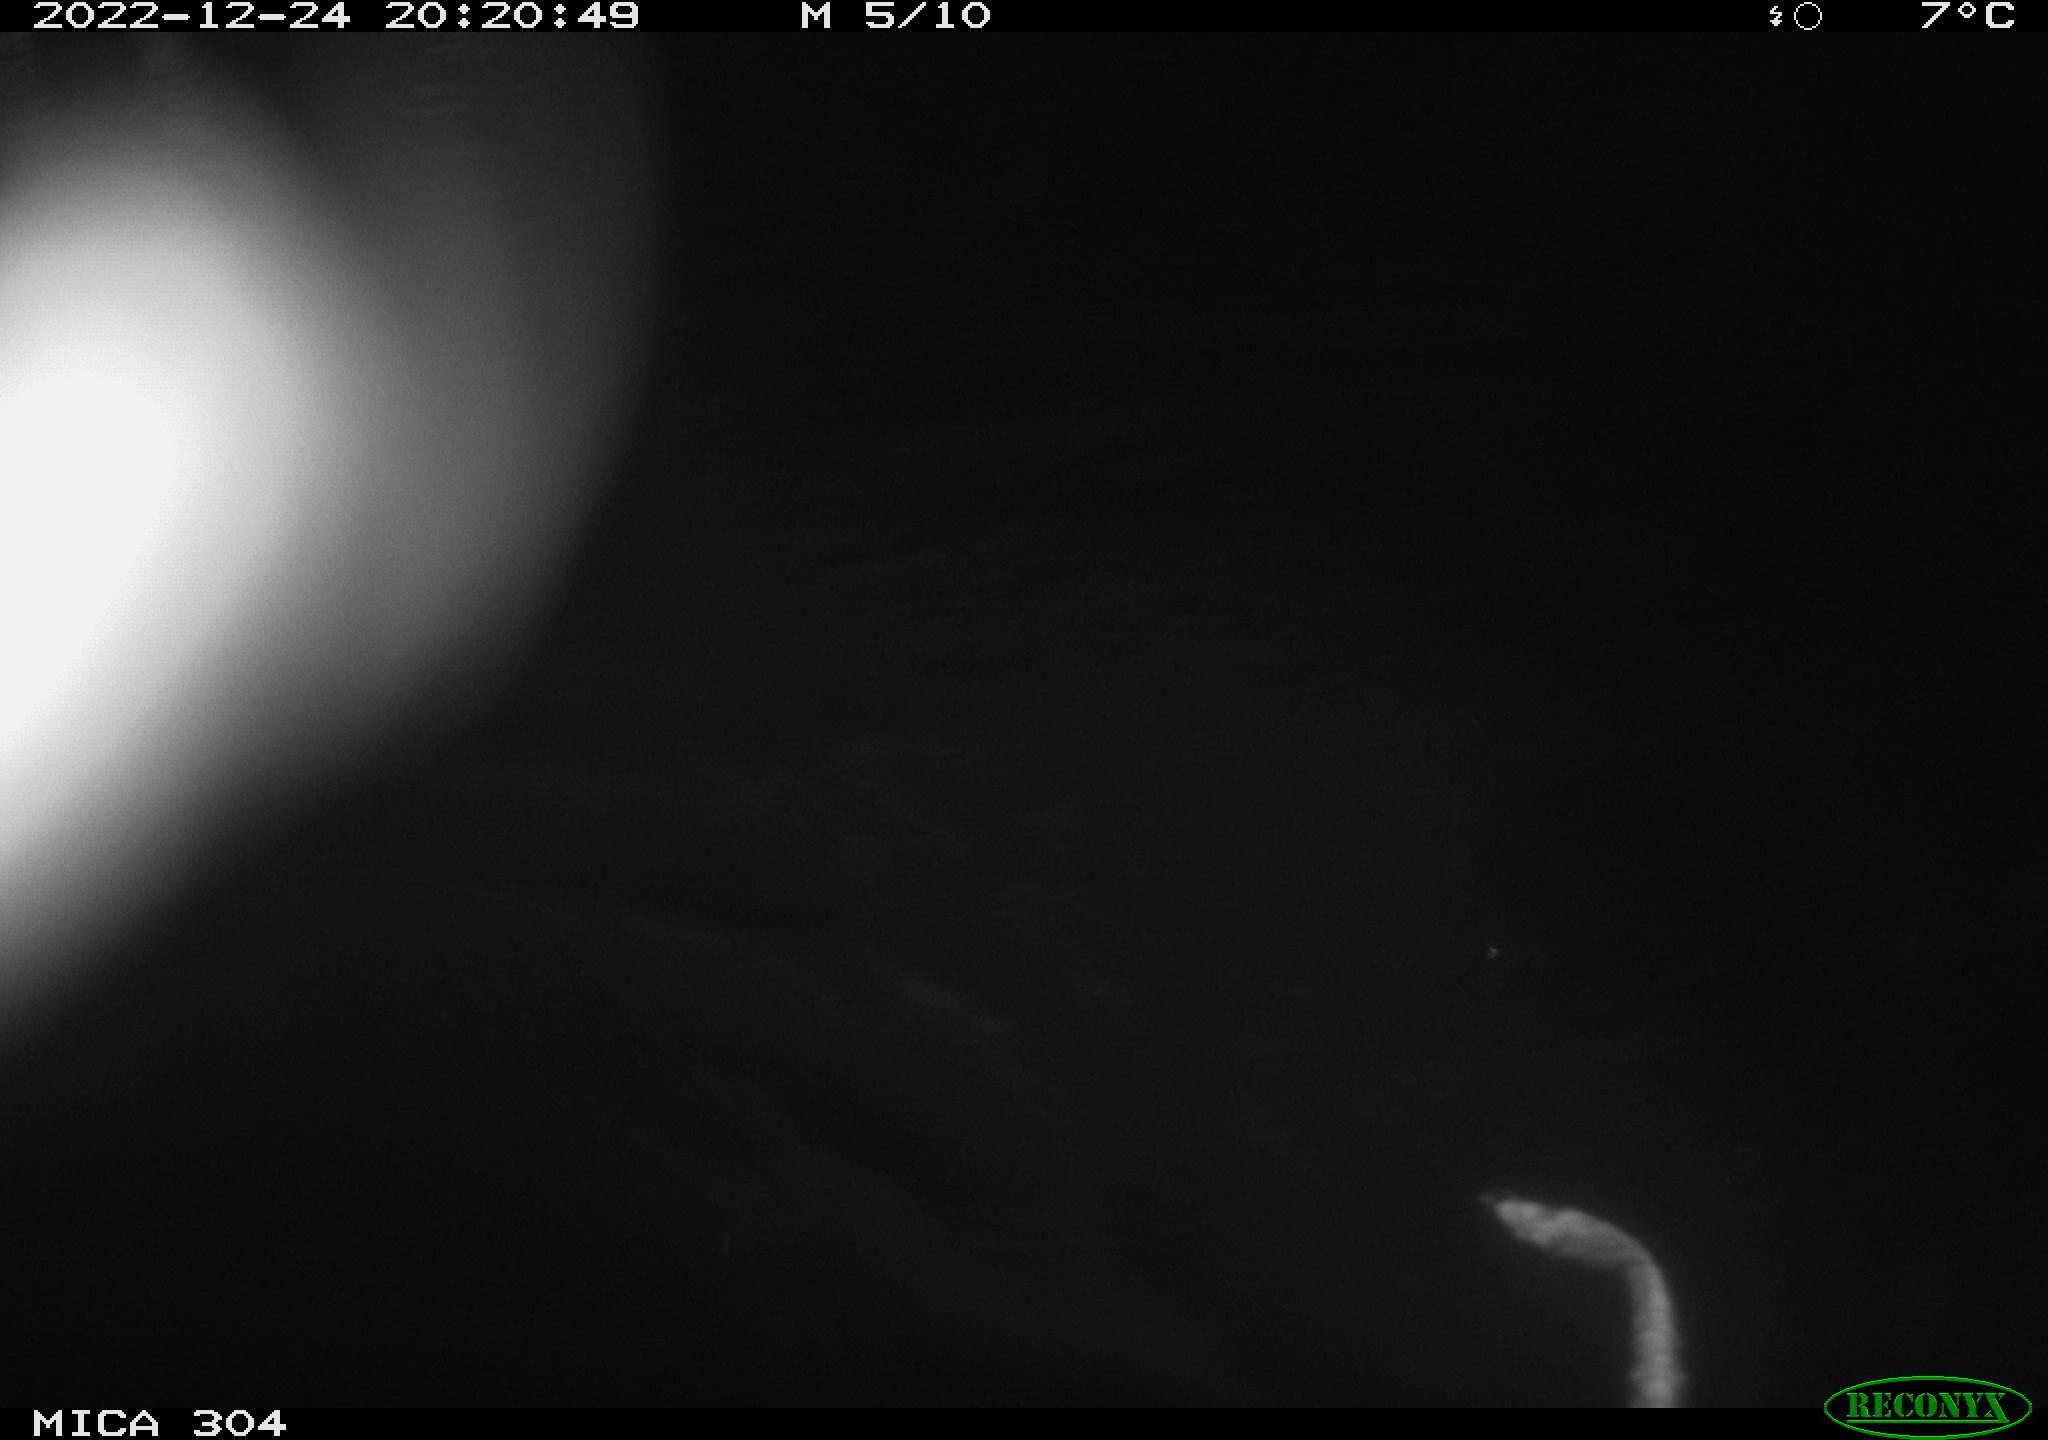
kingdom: Animalia
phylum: Chordata
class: Mammalia
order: Rodentia
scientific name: Rodentia
